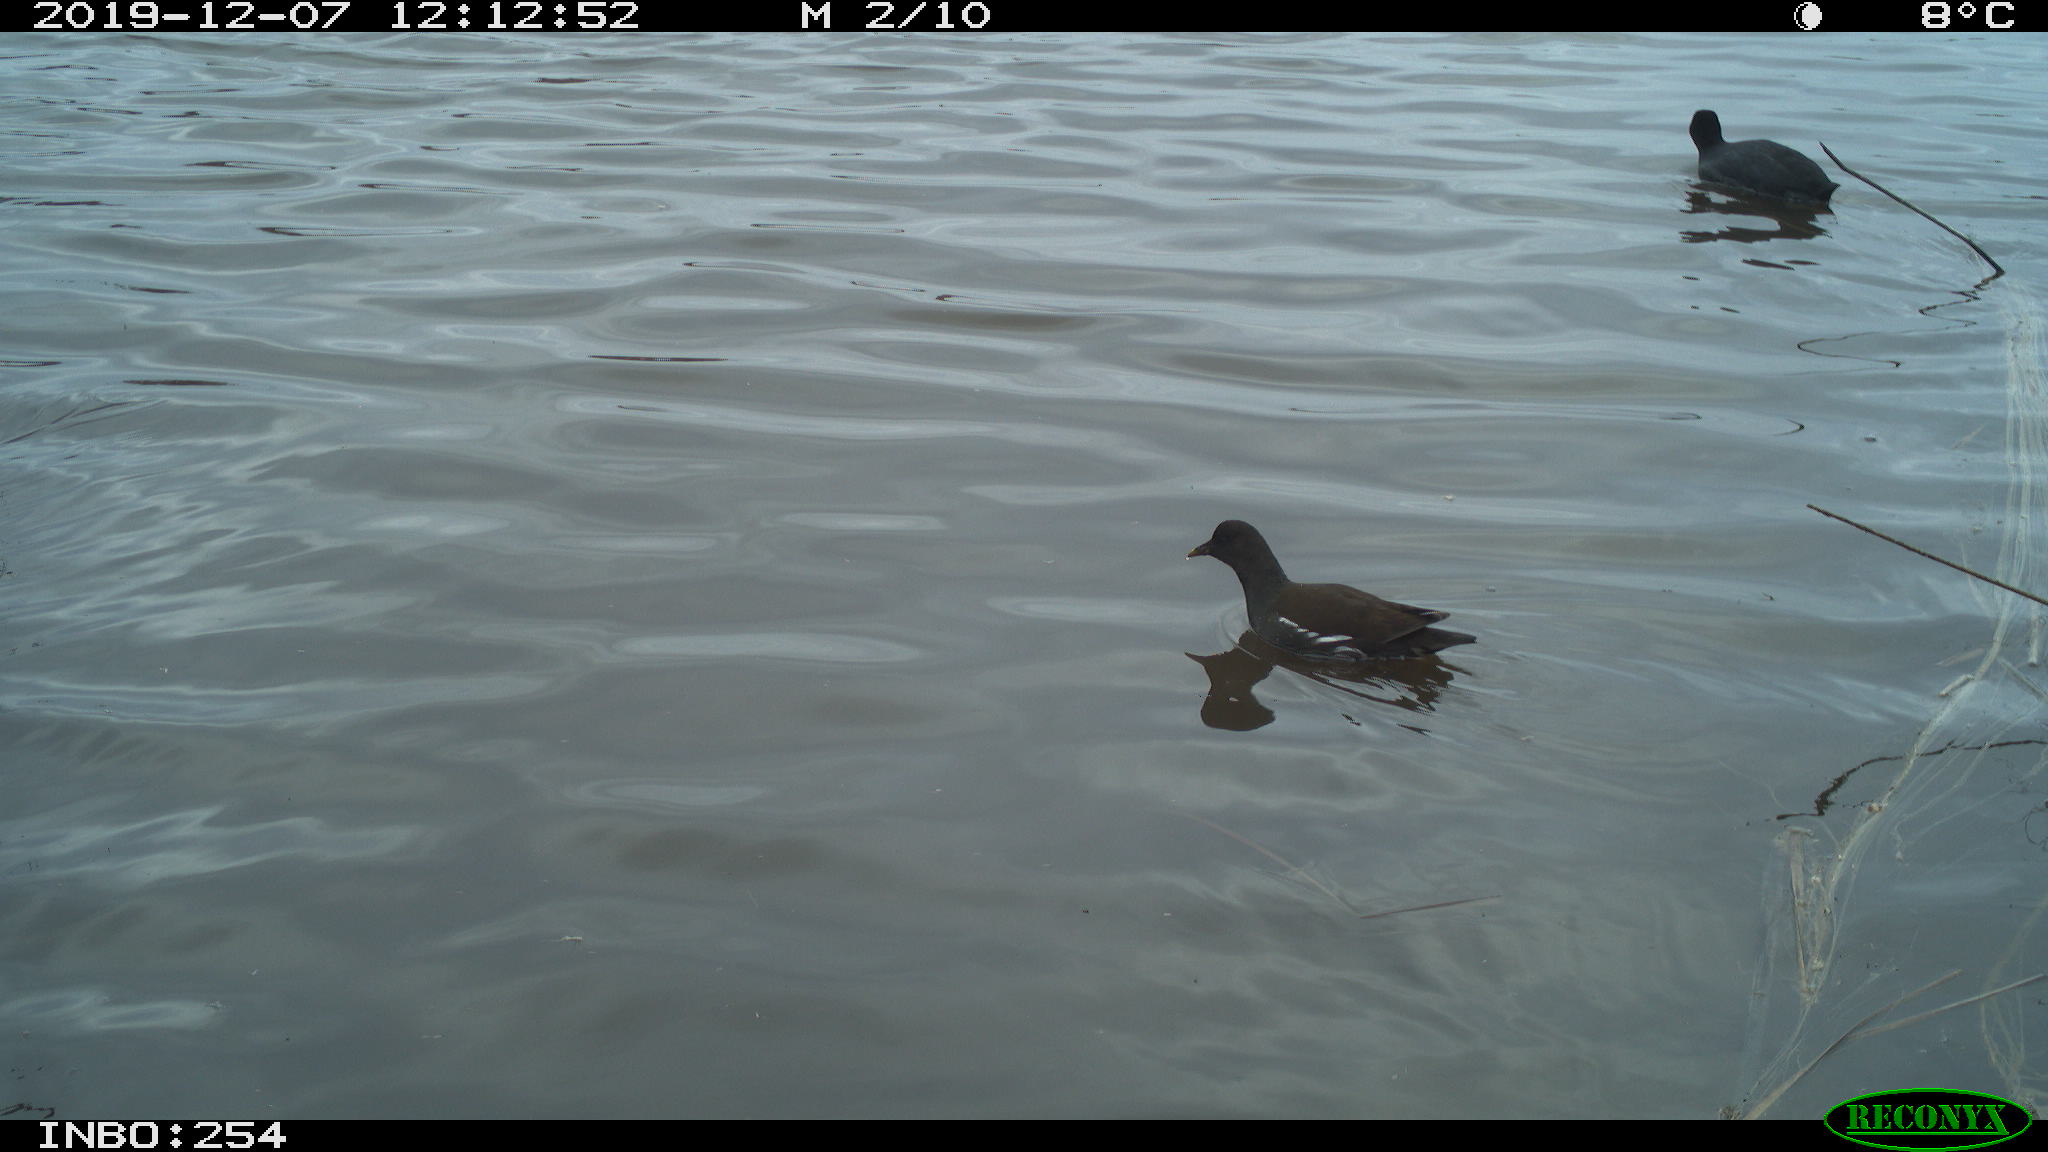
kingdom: Animalia
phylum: Chordata
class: Aves
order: Gruiformes
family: Rallidae
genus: Fulica
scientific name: Fulica atra
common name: Eurasian coot
